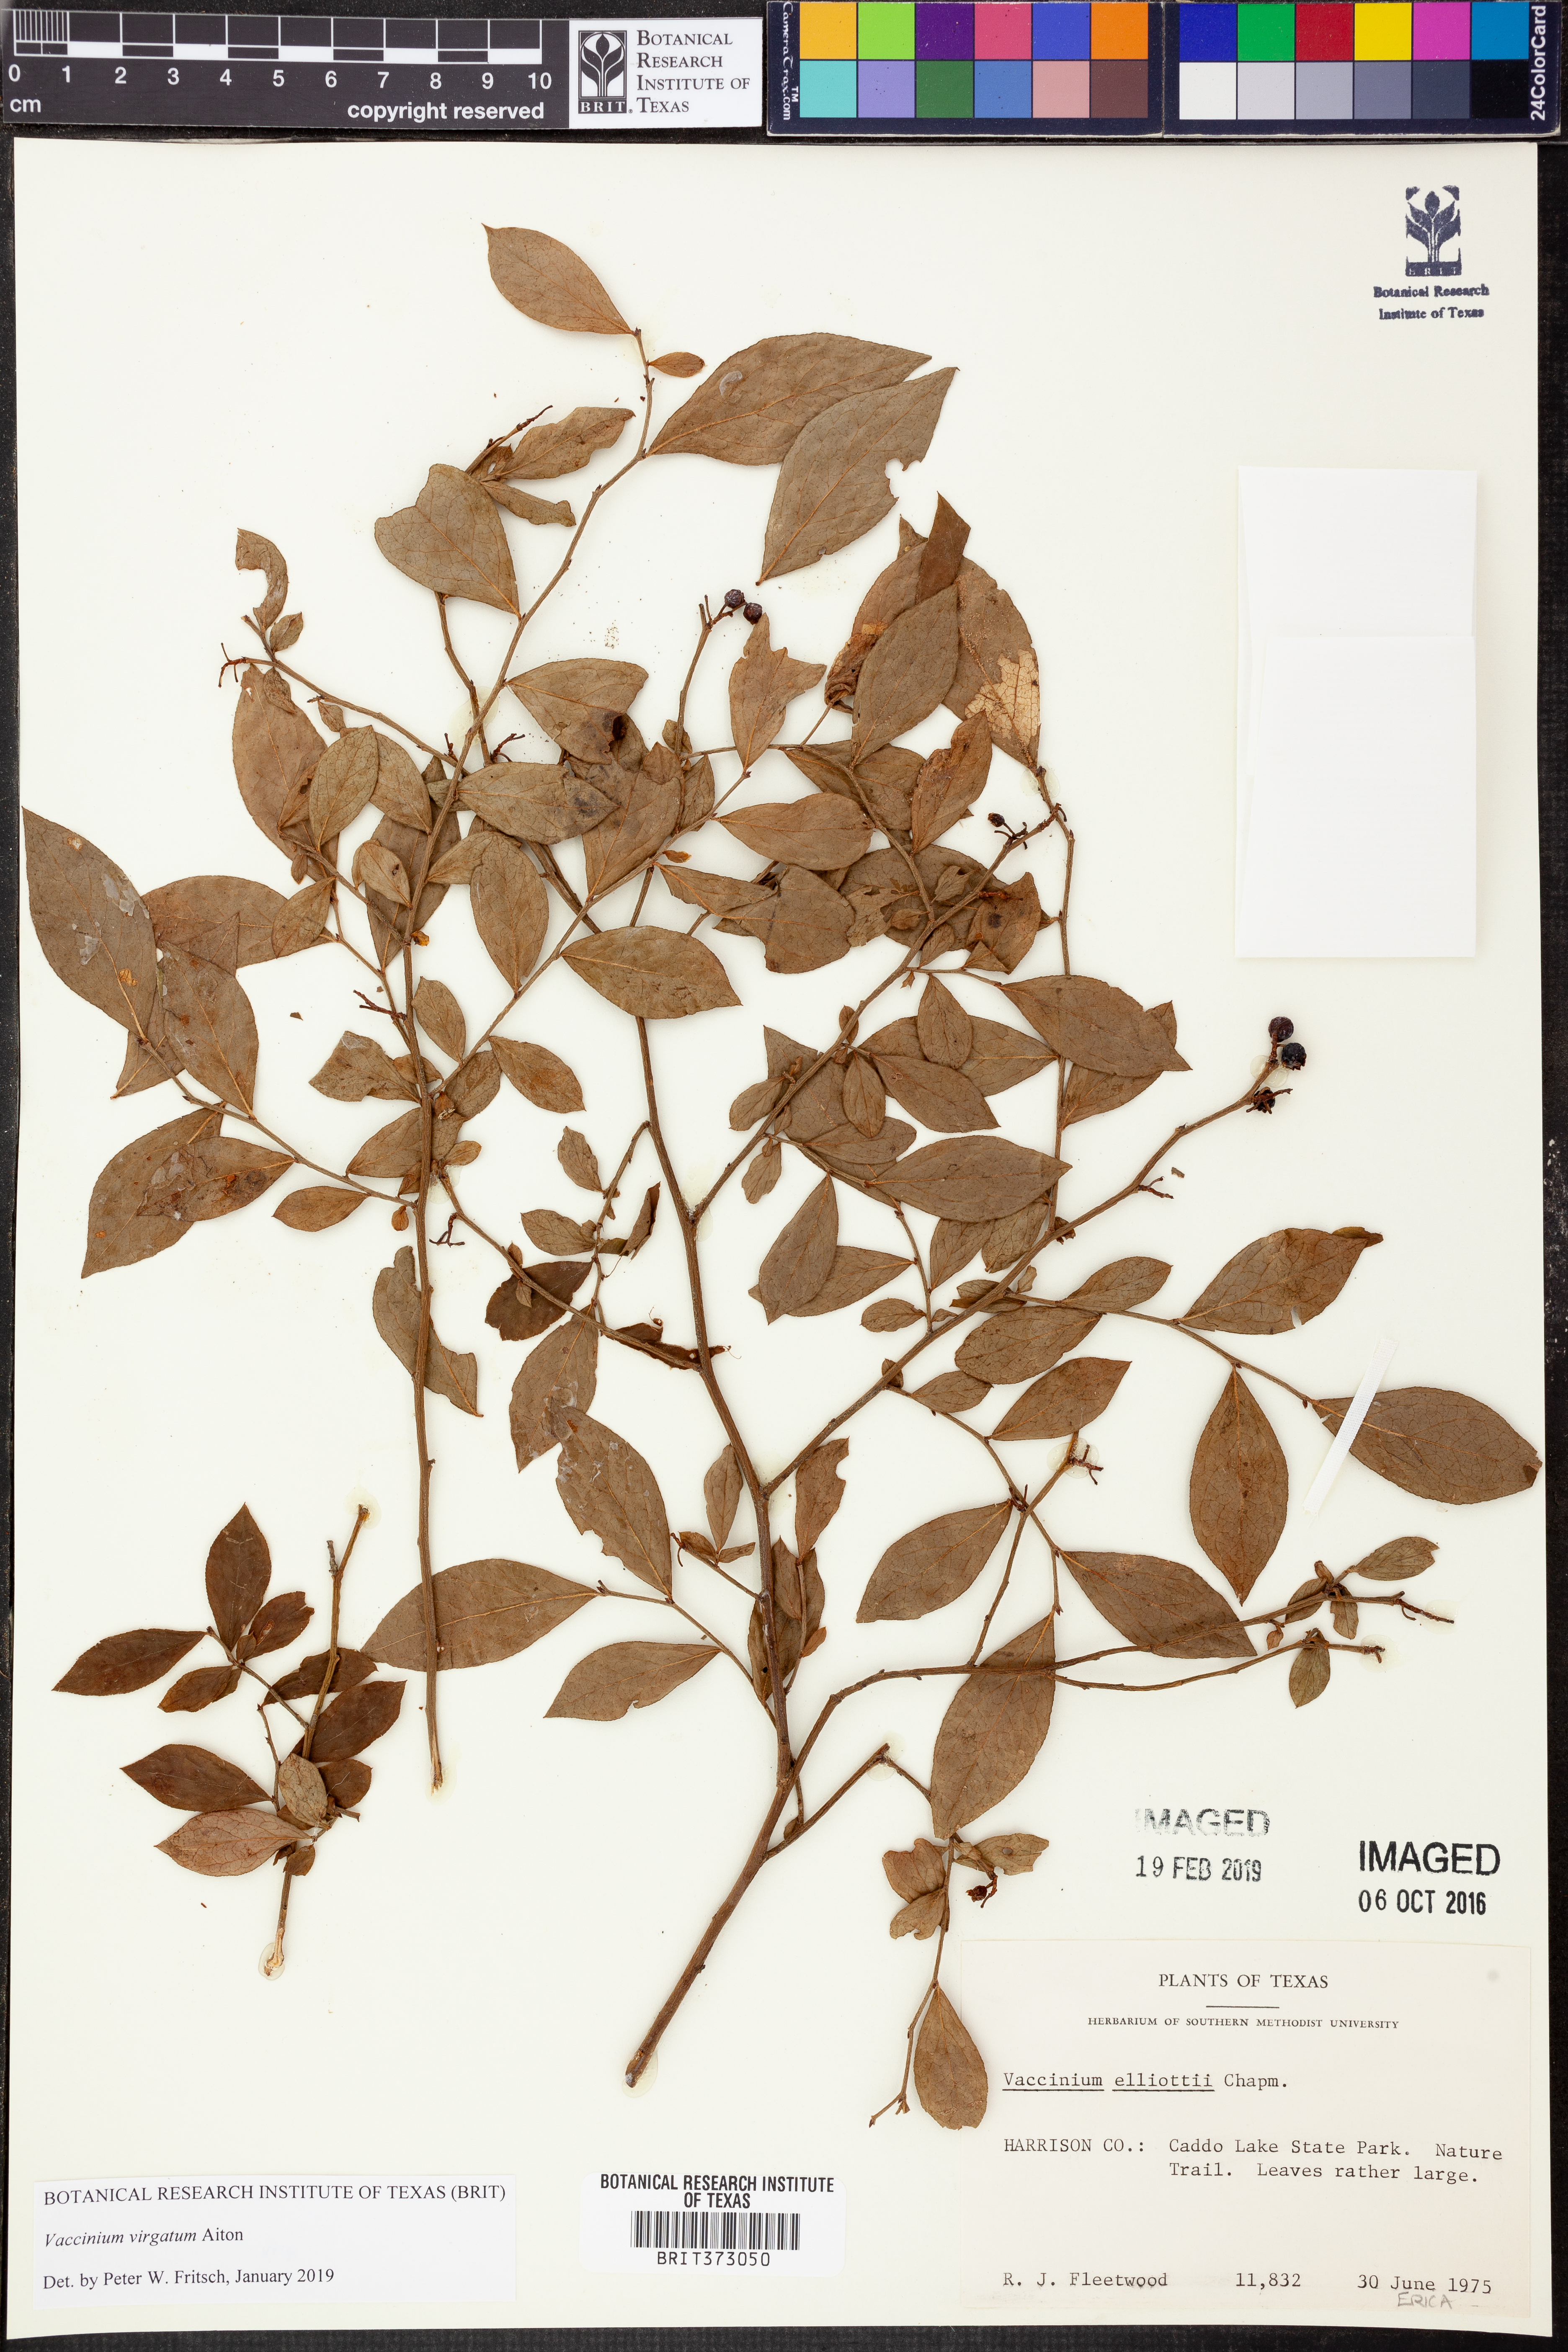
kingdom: Plantae
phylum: Tracheophyta
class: Magnoliopsida
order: Ericales
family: Ericaceae
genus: Vaccinium
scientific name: Vaccinium corymbosum
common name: Blueberry
